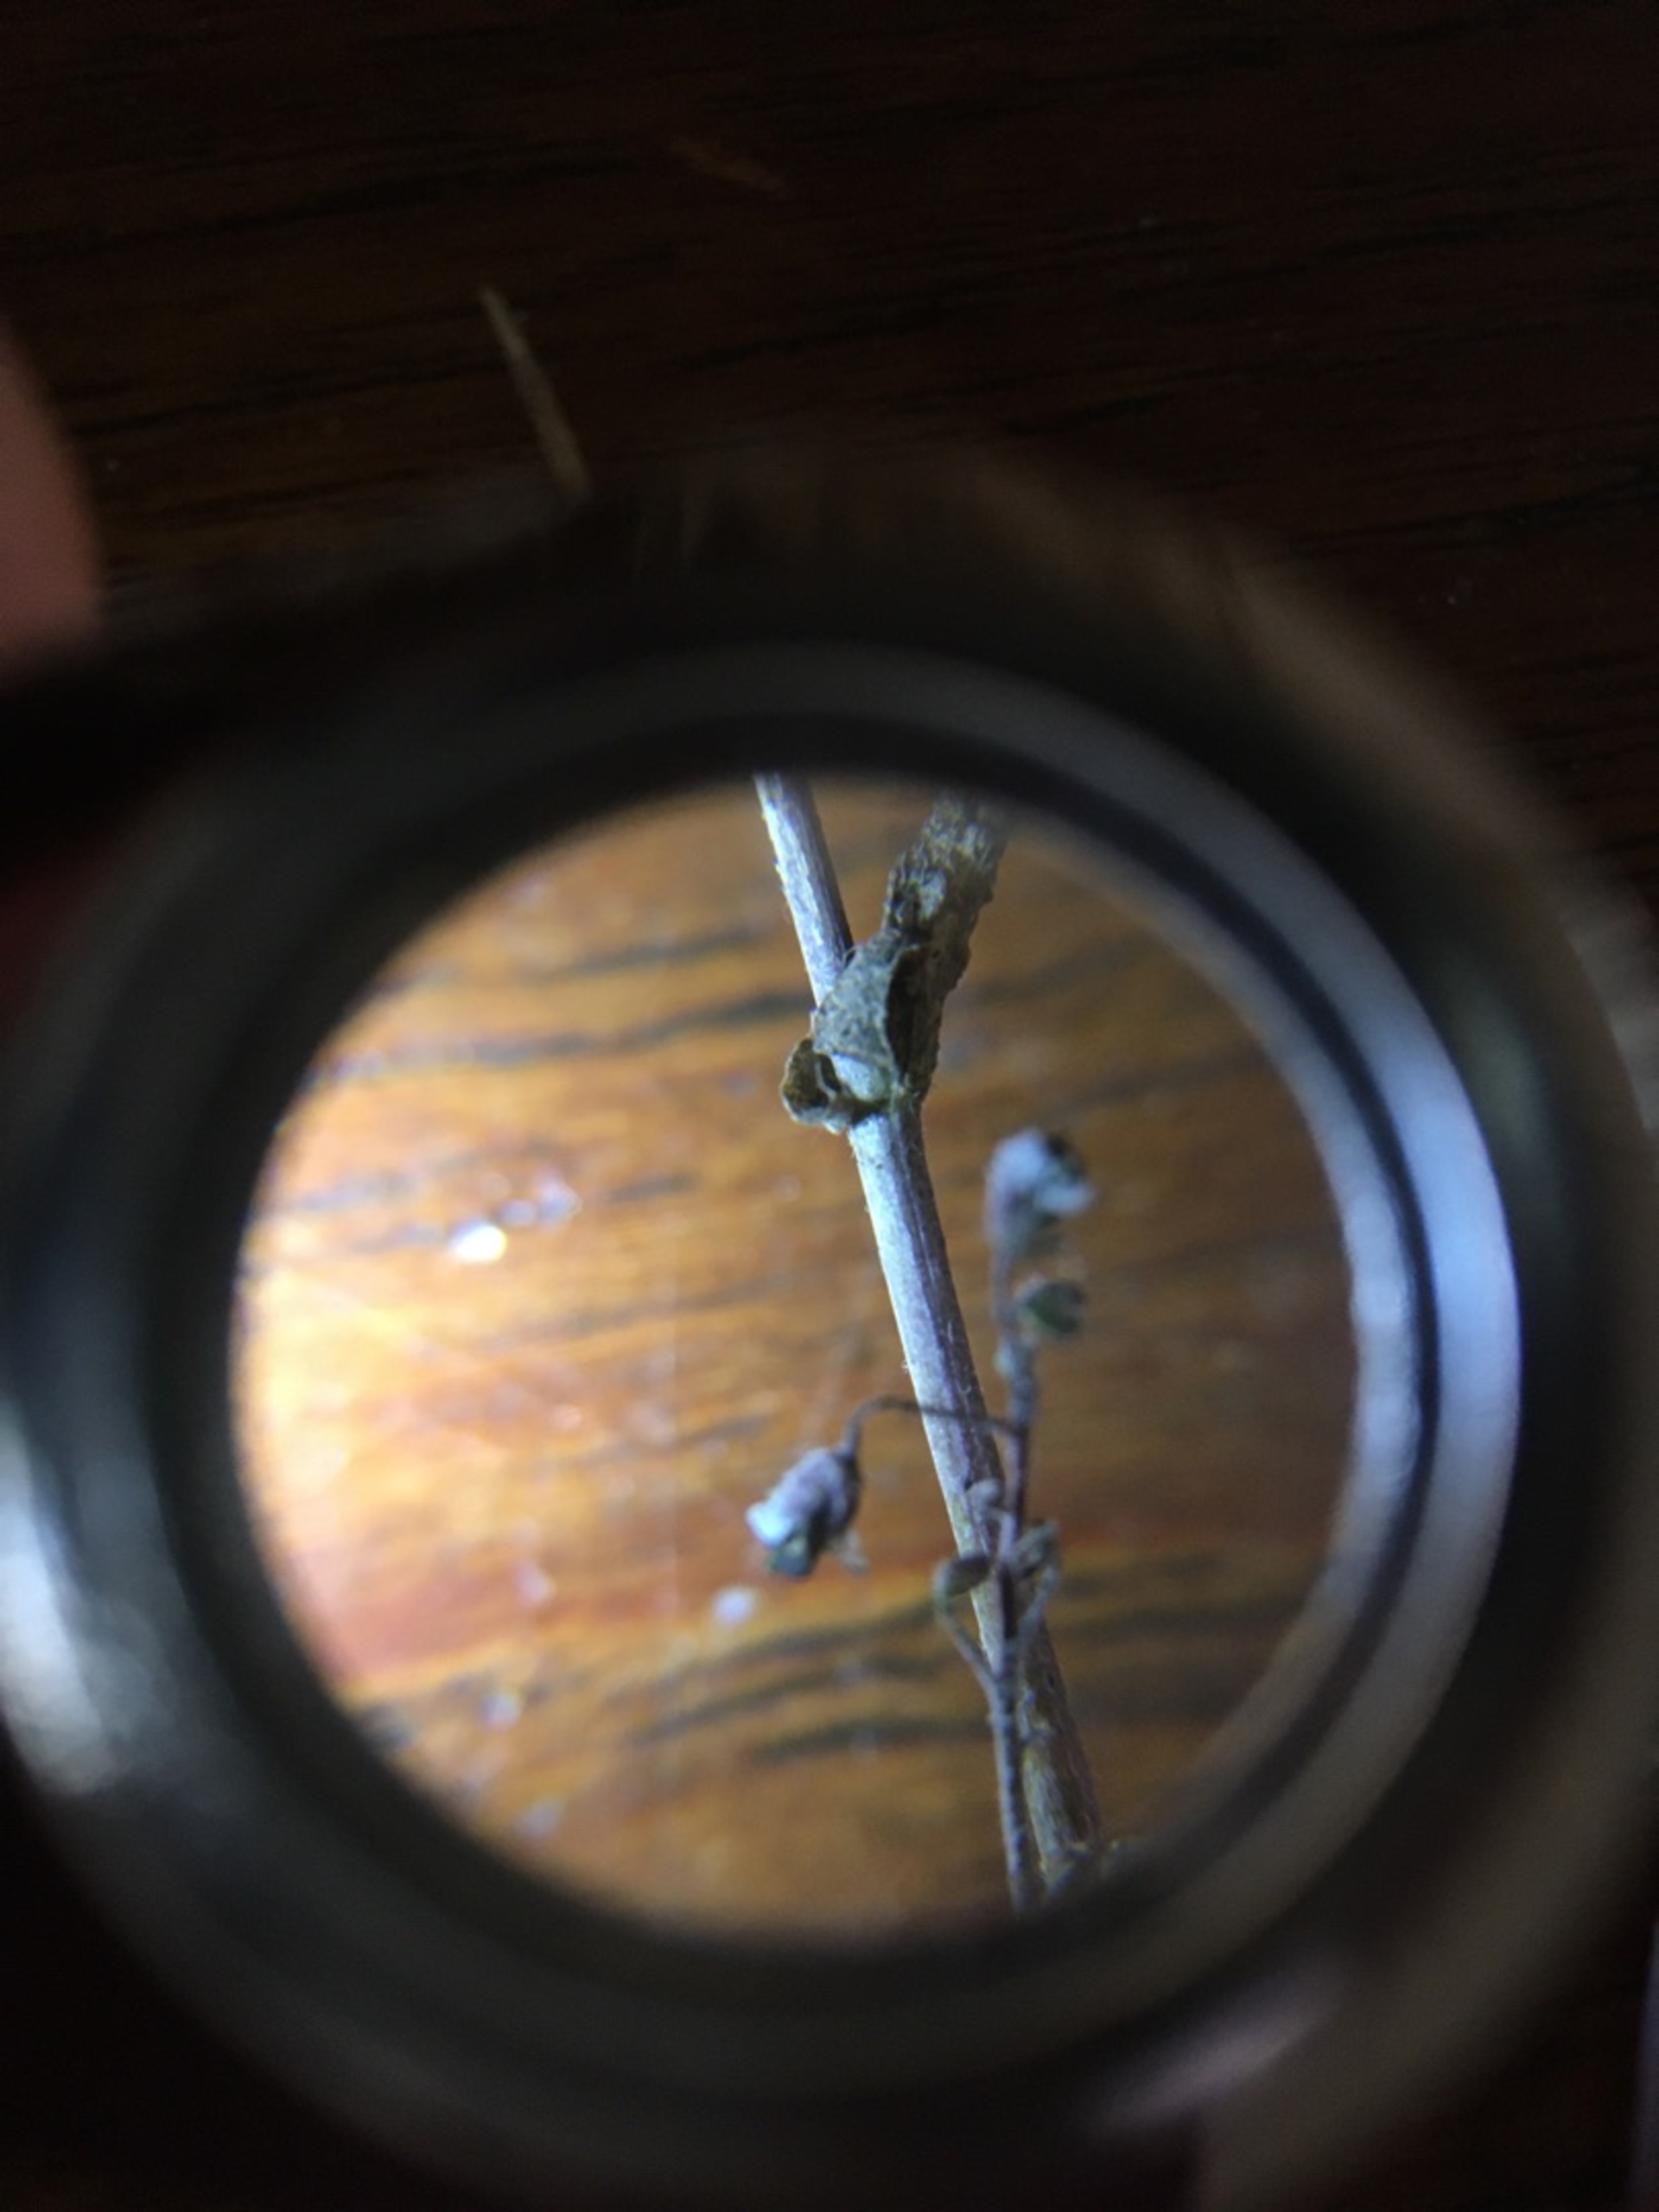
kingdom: Plantae
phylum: Tracheophyta
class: Magnoliopsida
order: Brassicales
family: Brassicaceae
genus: Capsella
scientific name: Capsella bursa-pastoris
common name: Hyrdetaske
